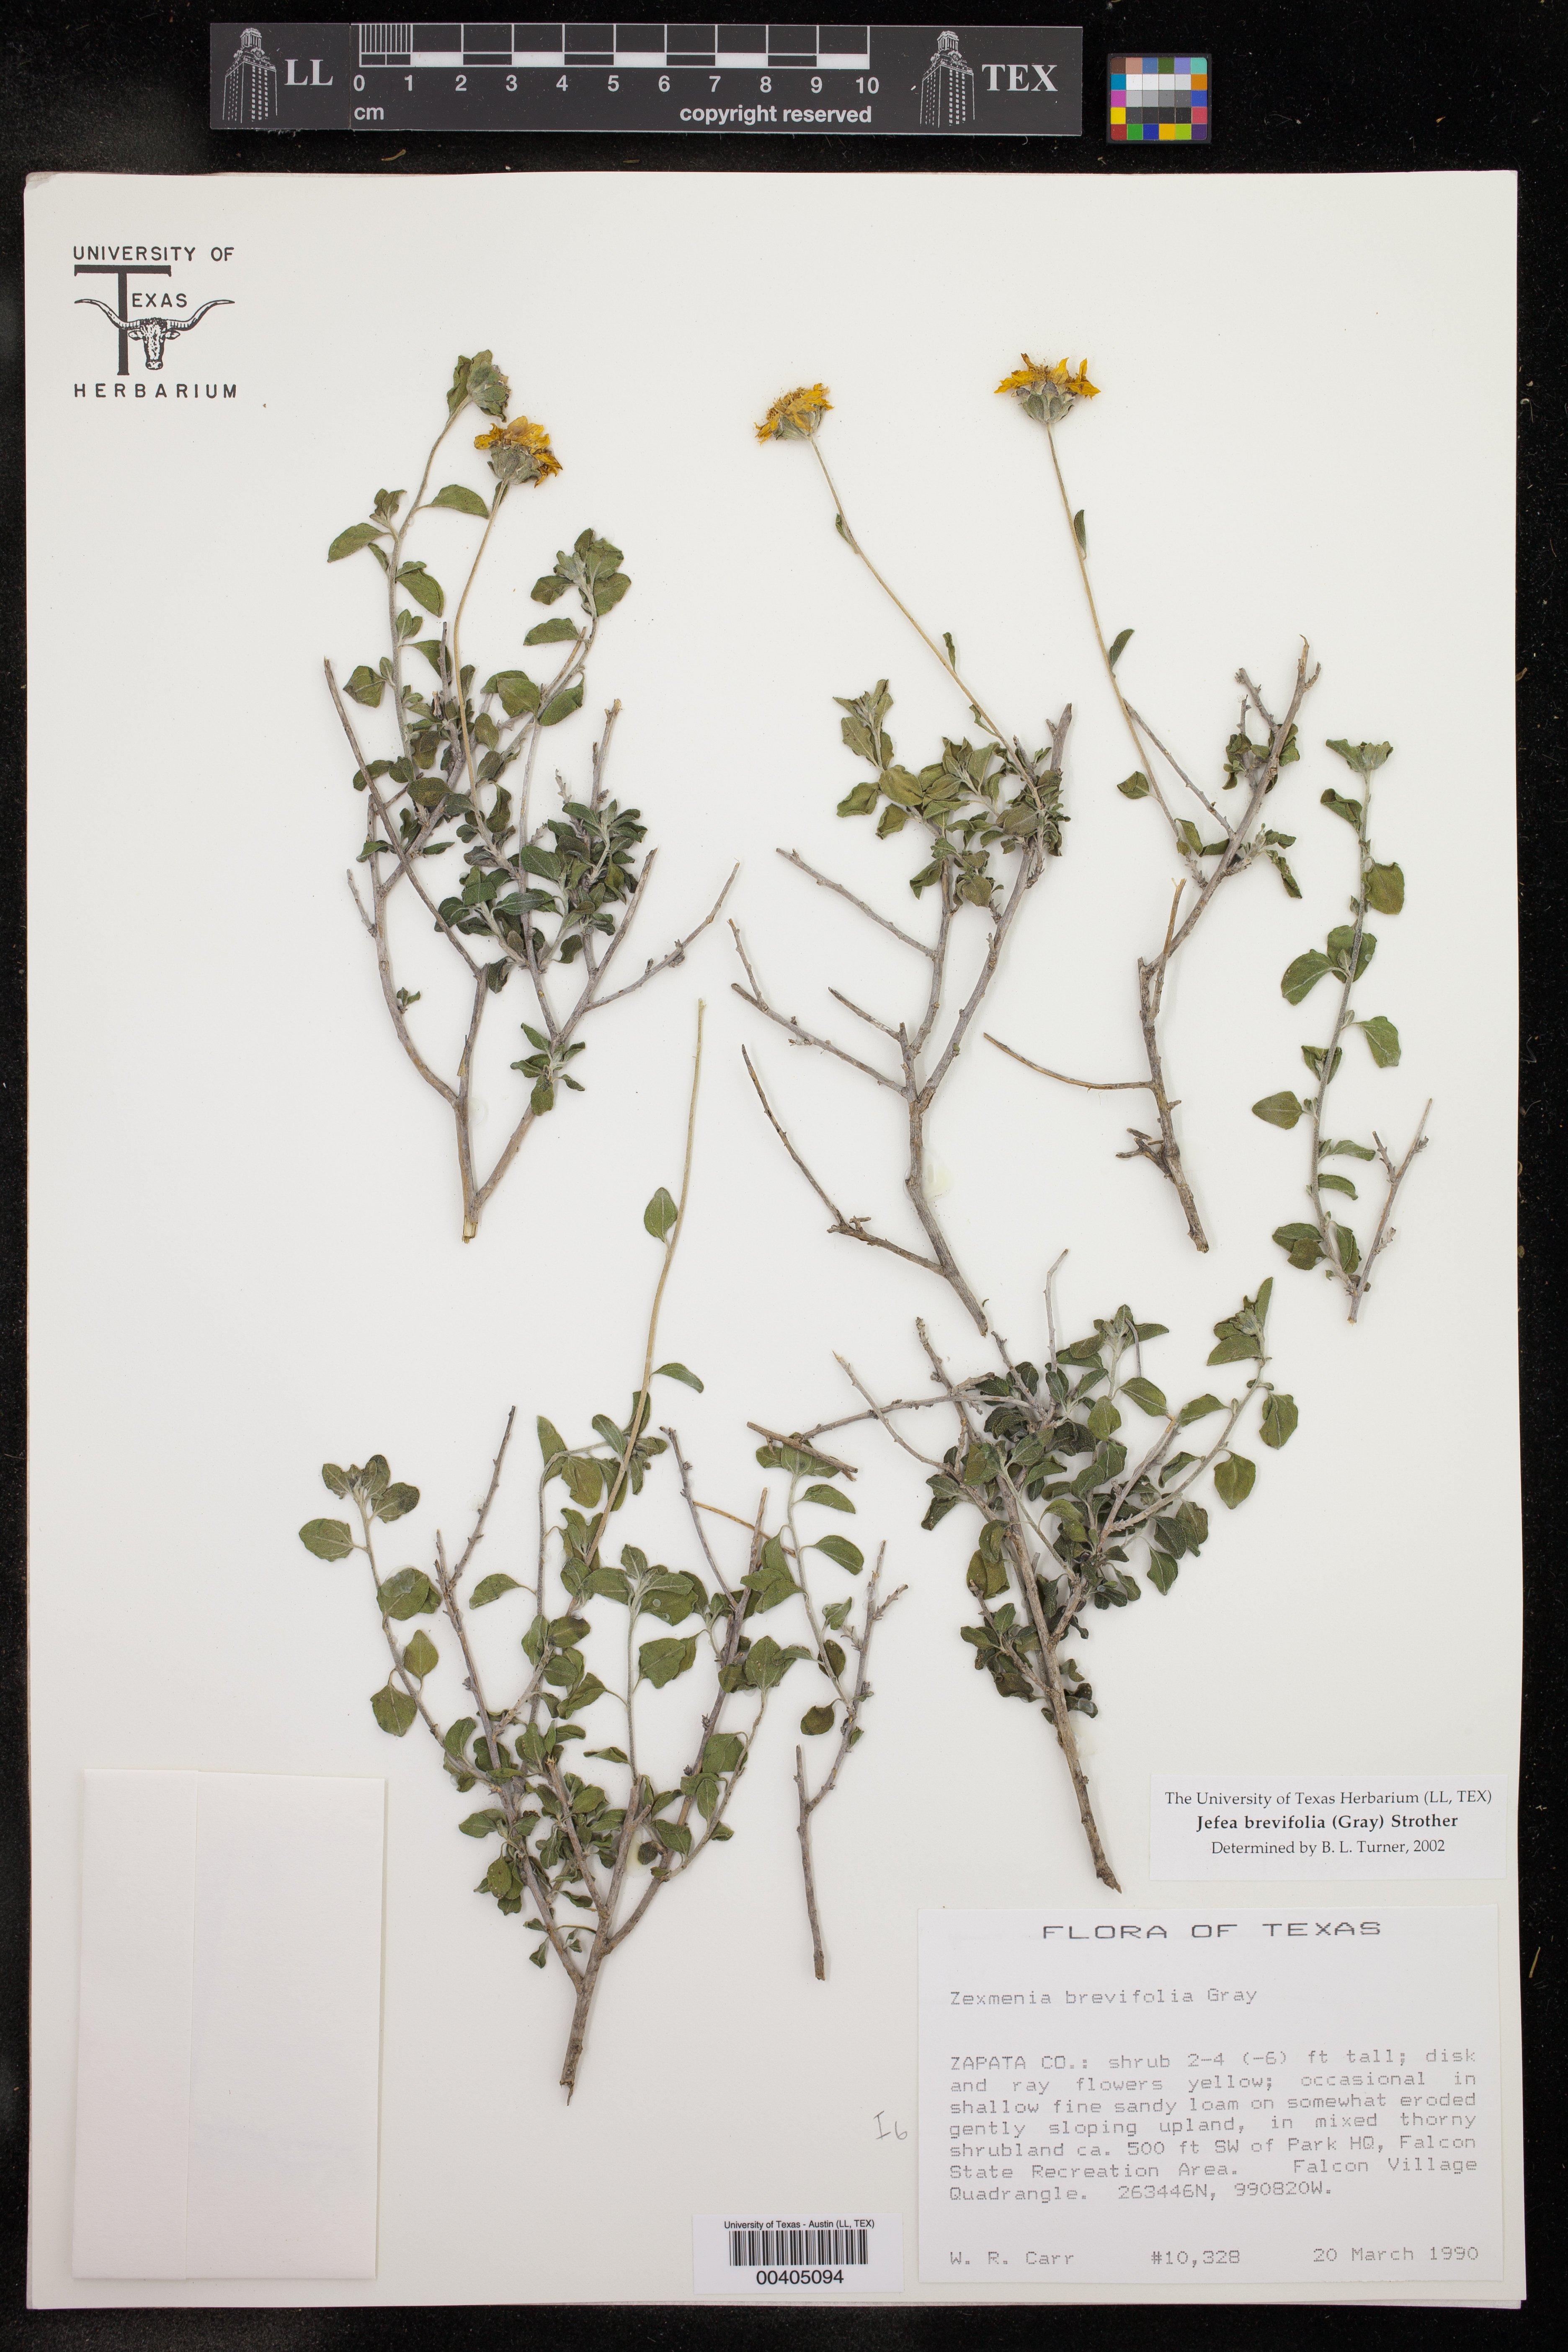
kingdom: Plantae
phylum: Tracheophyta
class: Magnoliopsida
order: Asterales
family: Asteraceae
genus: Jefea
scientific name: Jefea brevifolia
